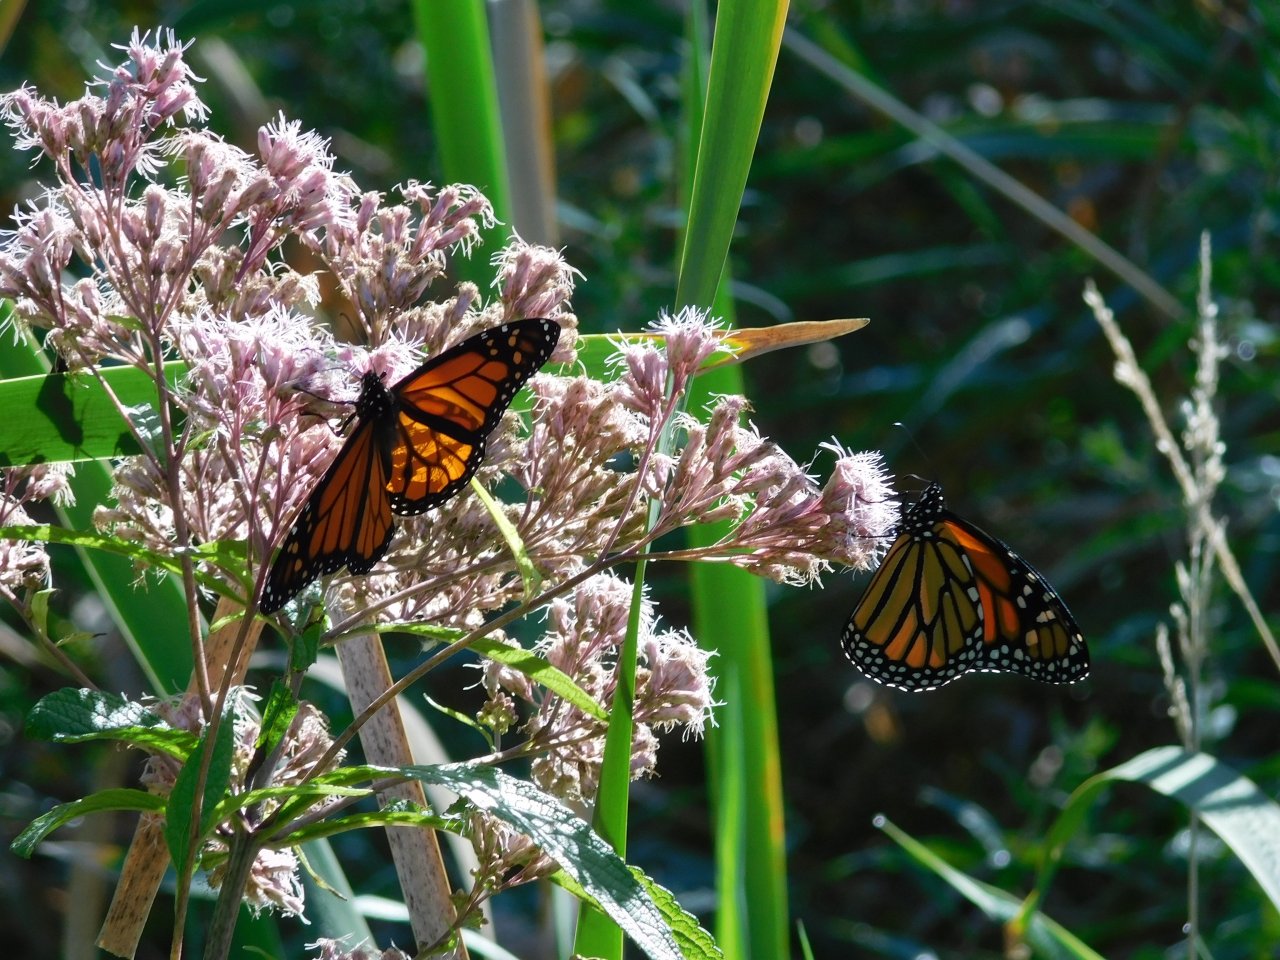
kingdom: Animalia
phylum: Arthropoda
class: Insecta
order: Lepidoptera
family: Nymphalidae
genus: Danaus
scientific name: Danaus plexippus
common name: Monarch
